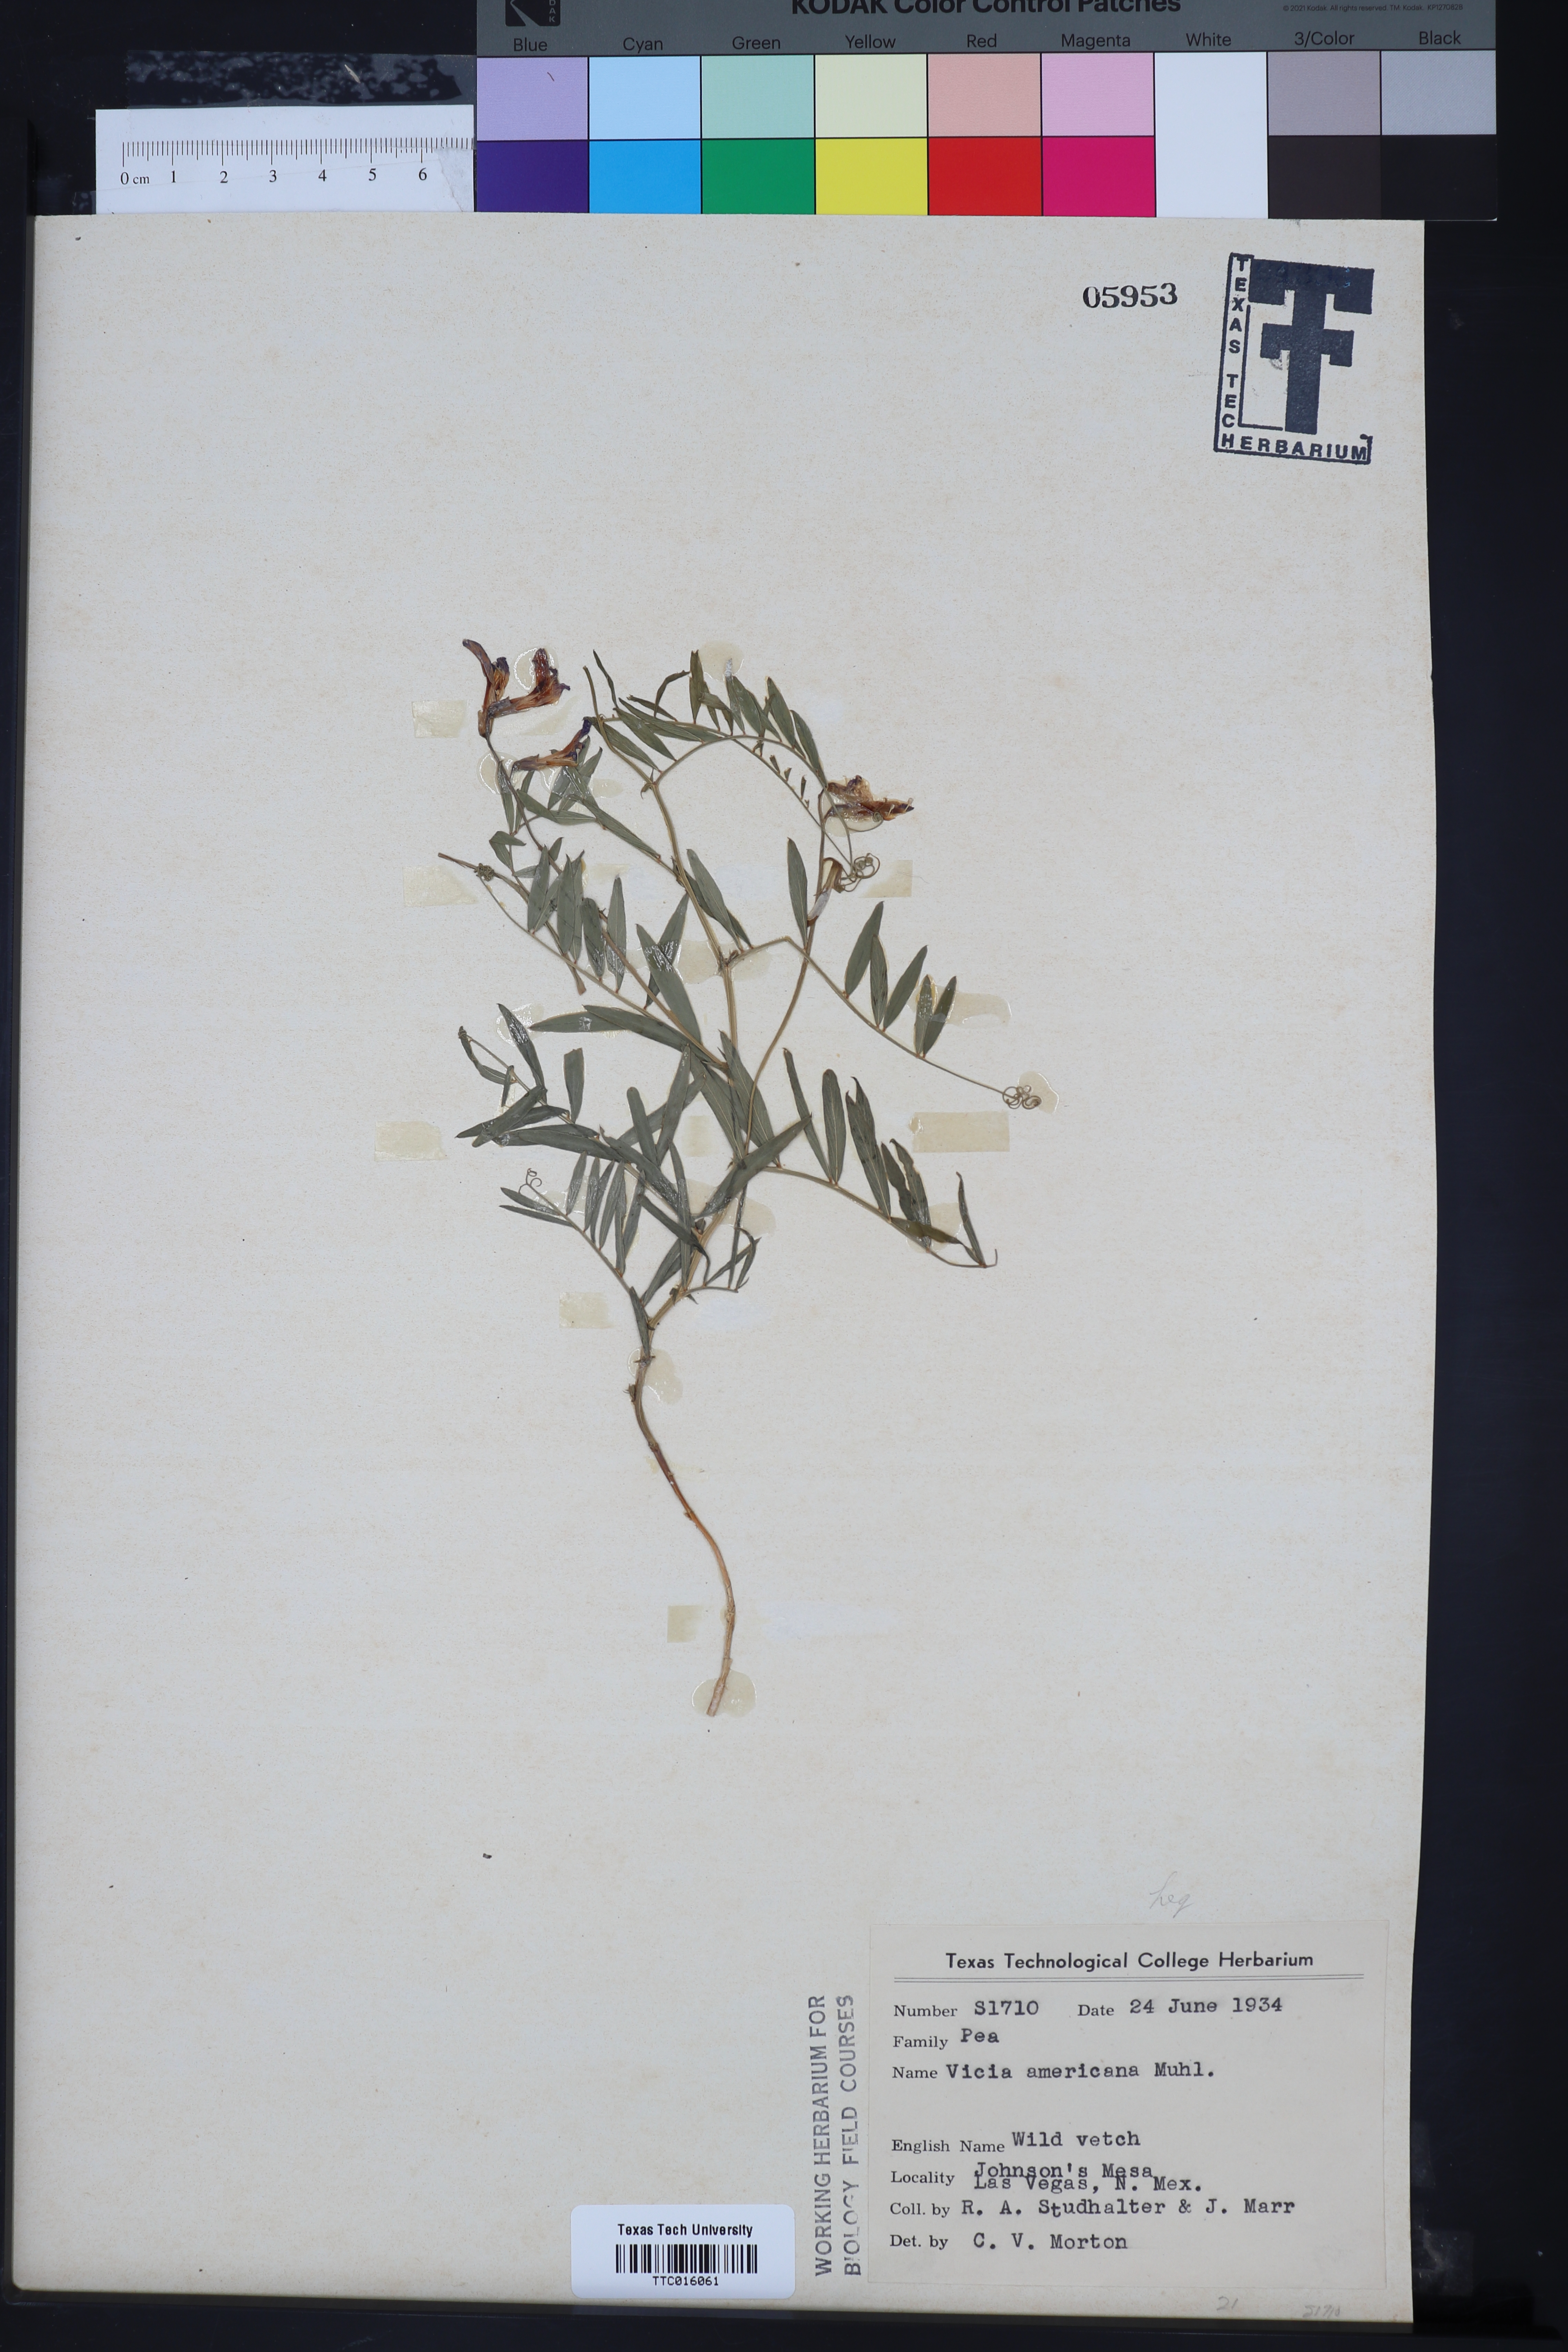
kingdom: Plantae
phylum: Tracheophyta
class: Magnoliopsida
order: Fabales
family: Fabaceae
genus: Vicia
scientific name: Vicia americana
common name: American vetch
